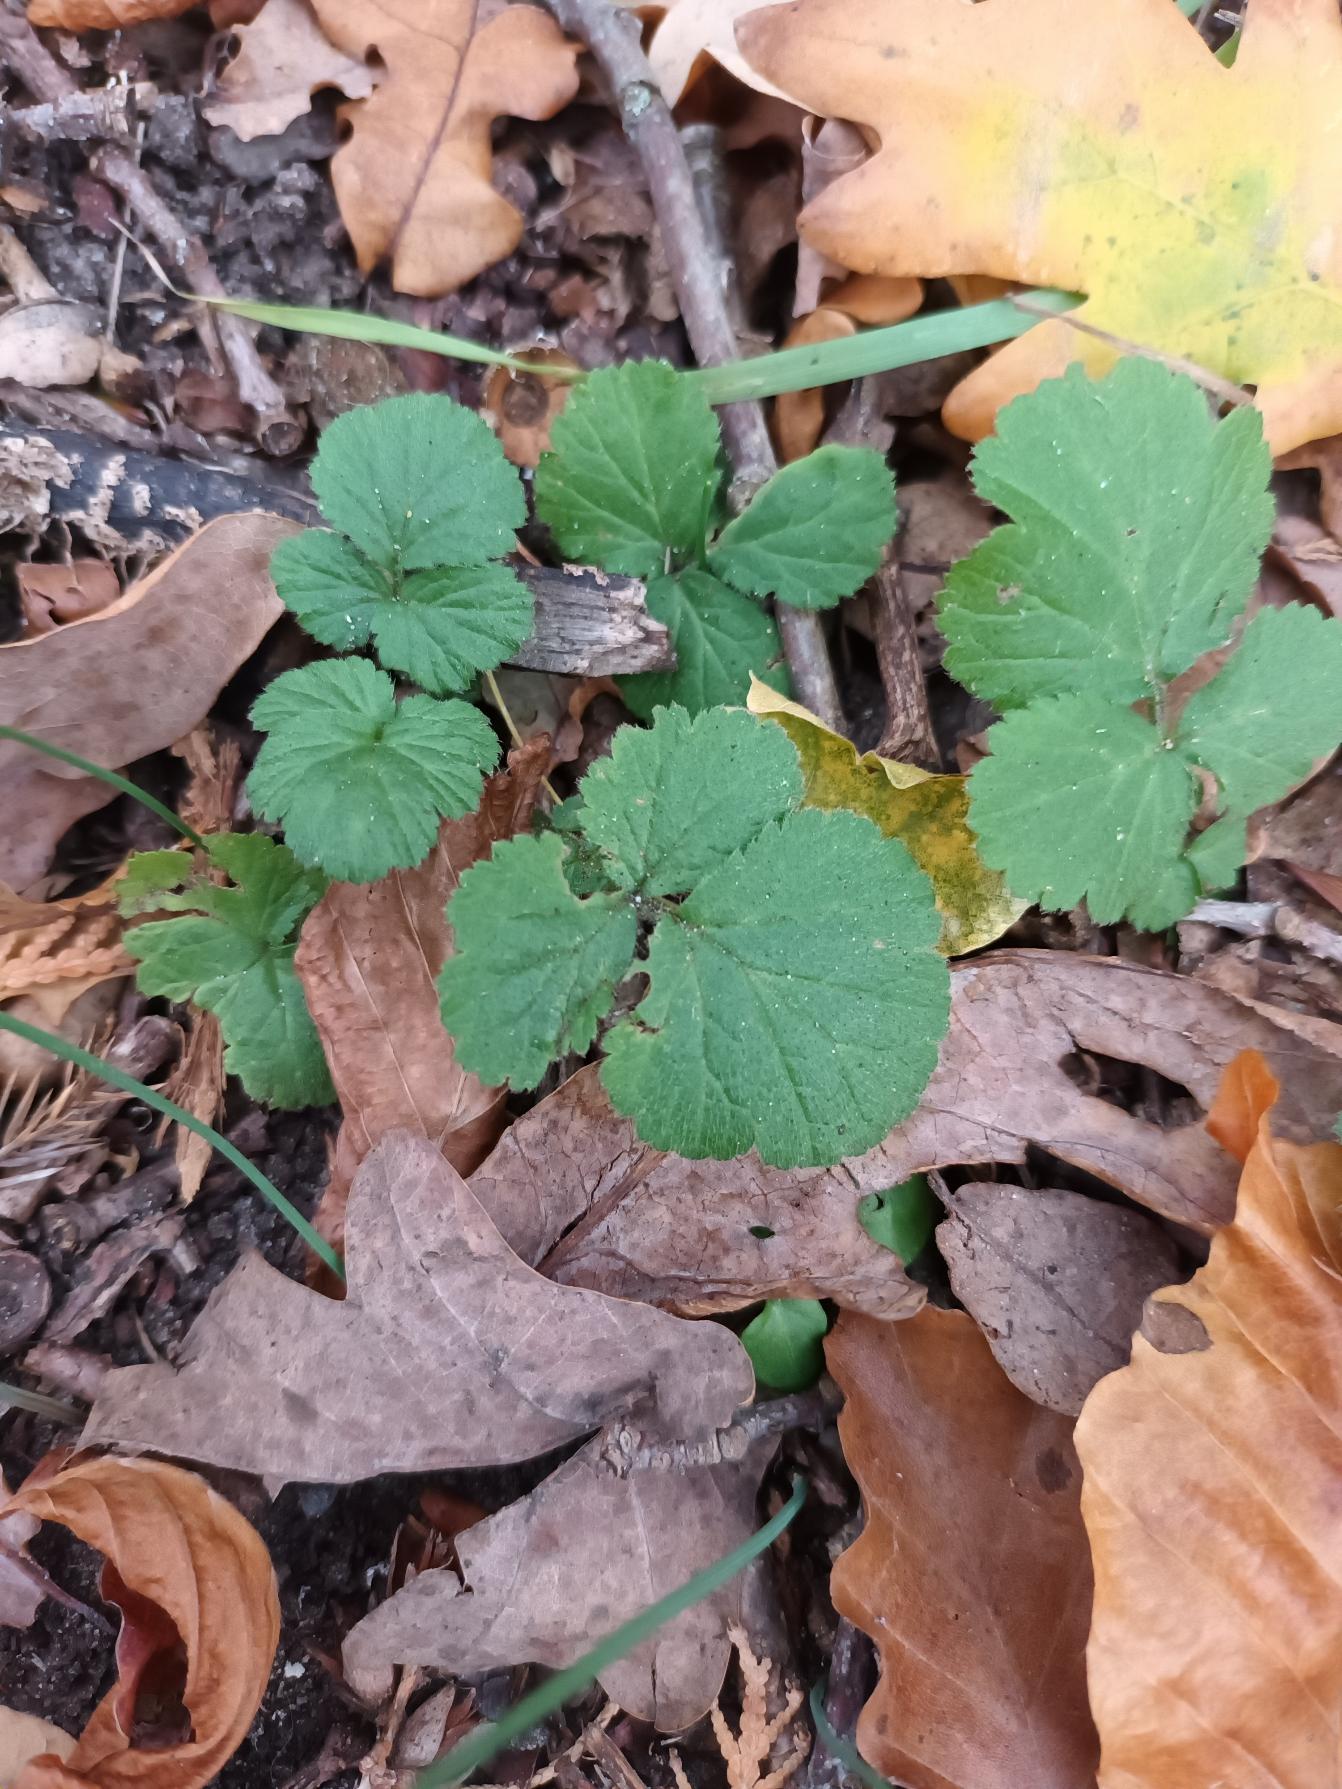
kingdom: Plantae
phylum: Tracheophyta
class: Magnoliopsida
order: Rosales
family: Rosaceae
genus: Geum
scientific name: Geum urbanum
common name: Feber-nellikerod
